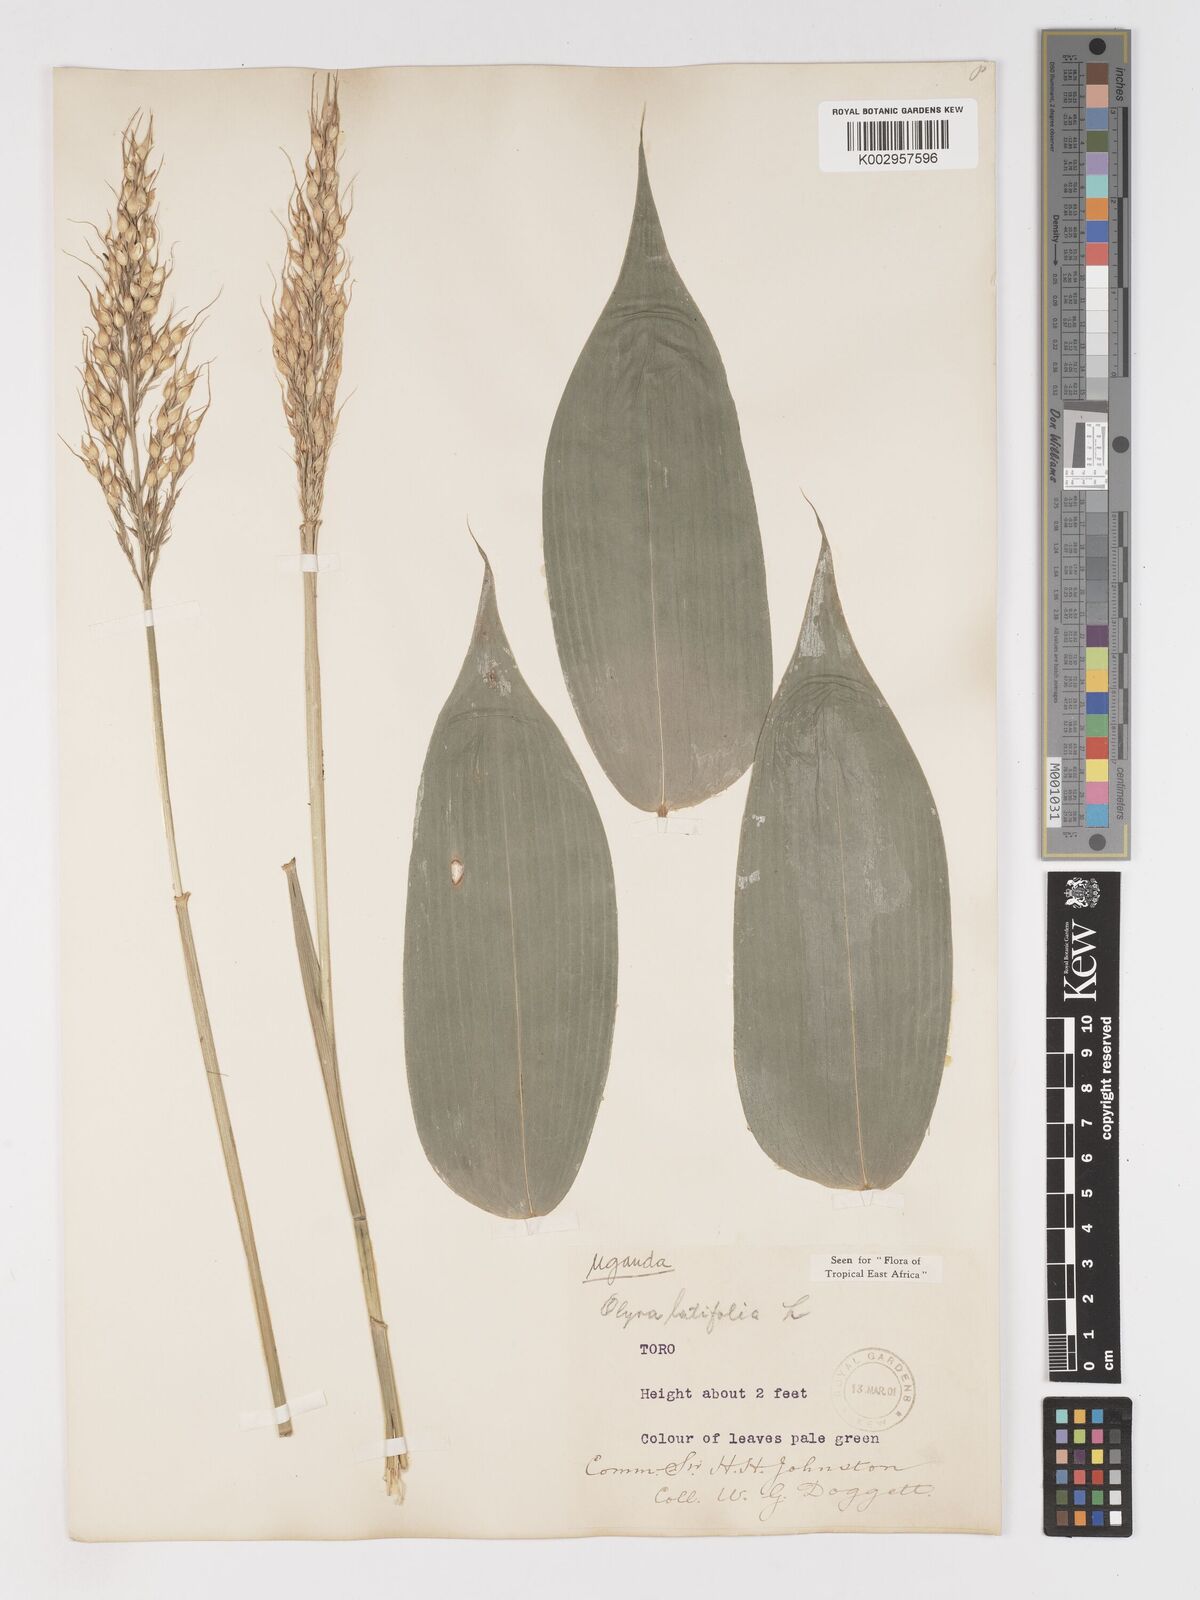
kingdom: Plantae
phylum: Tracheophyta
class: Liliopsida
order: Poales
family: Poaceae
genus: Olyra
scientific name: Olyra latifolia
